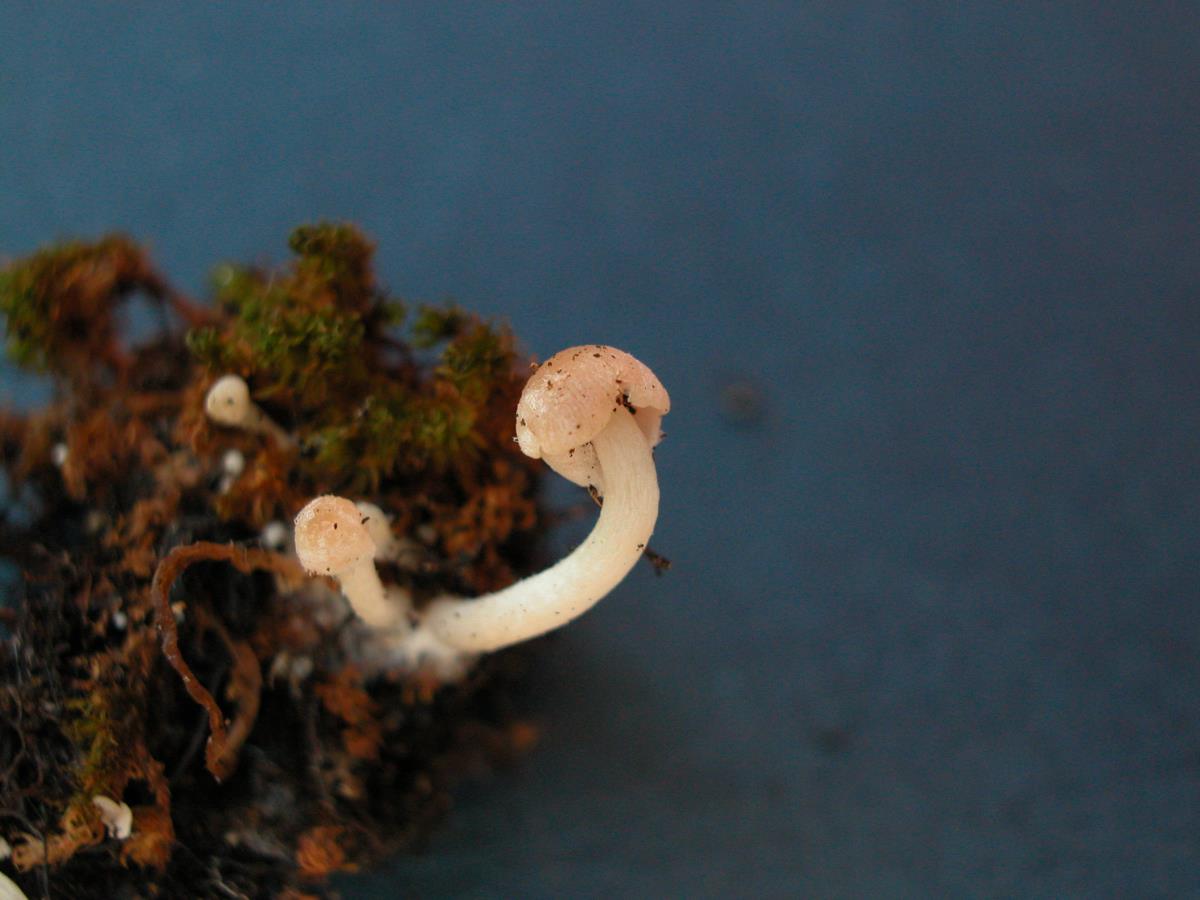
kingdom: Fungi
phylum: Basidiomycota
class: Agaricomycetes
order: Agaricales
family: Psathyrellaceae
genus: Coprinellus
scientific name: Coprinellus
